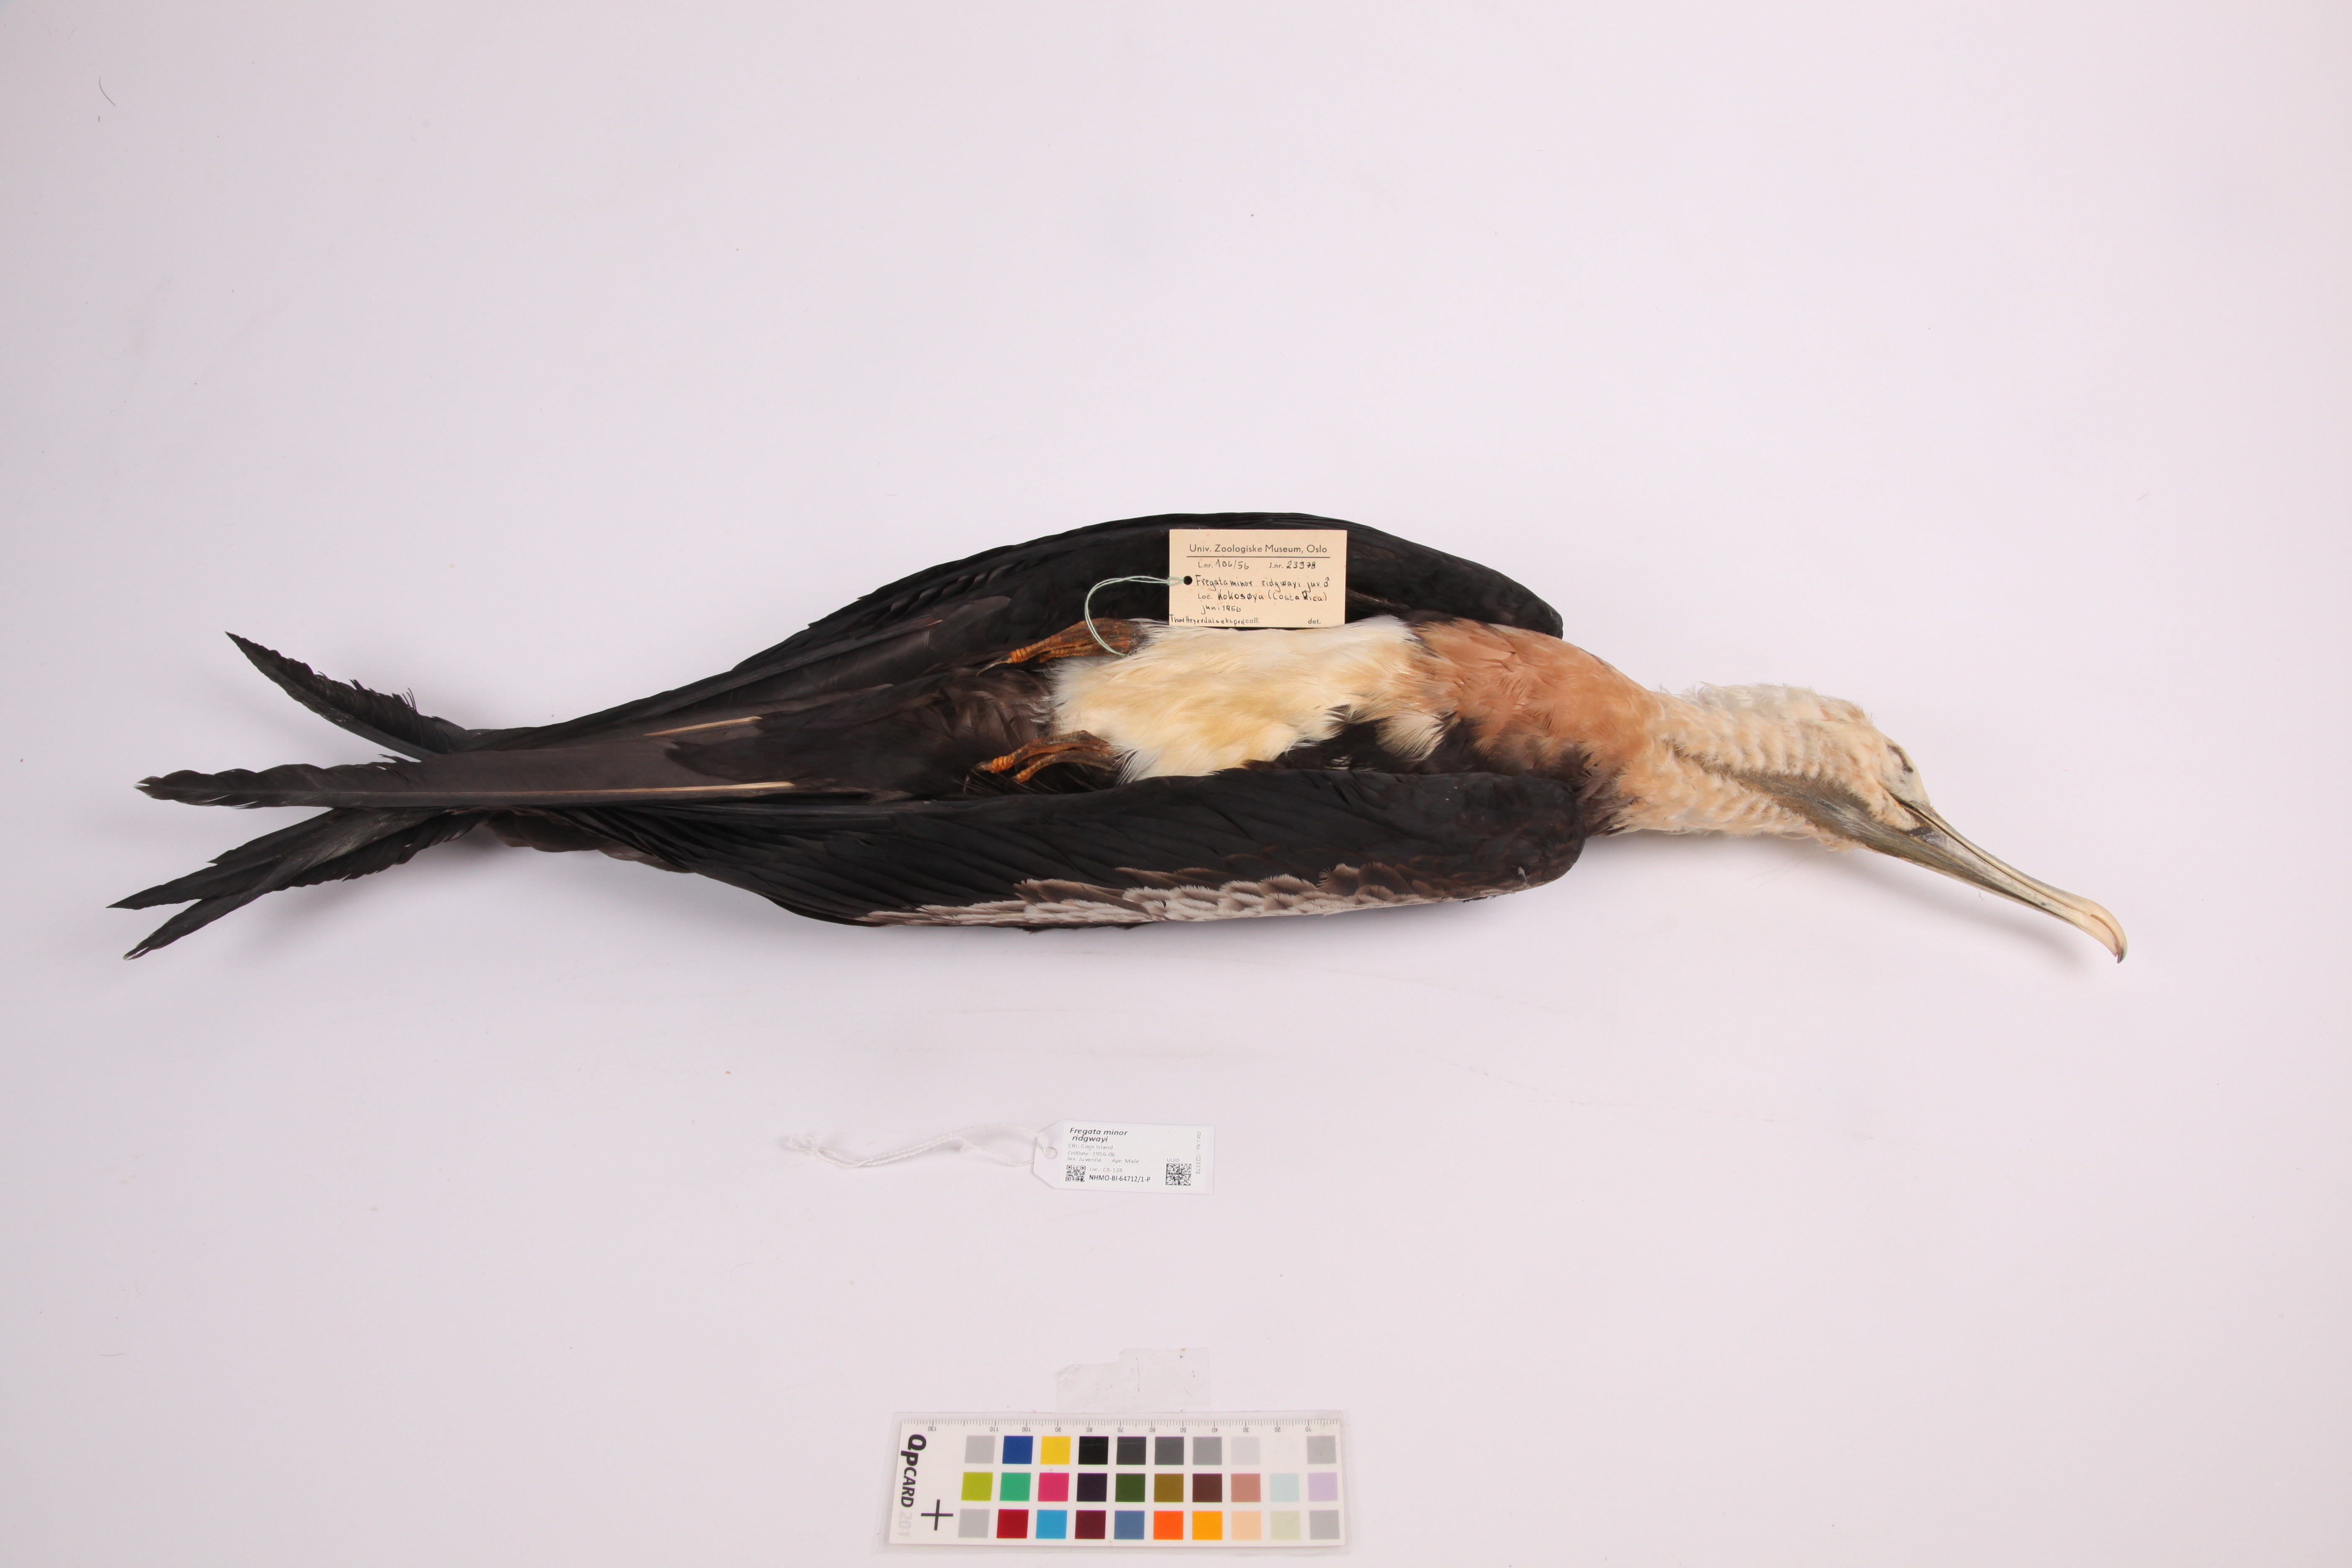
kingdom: Animalia
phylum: Chordata
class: Aves
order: Suliformes
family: Fregatidae
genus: Fregata
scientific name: Fregata minor
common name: Great frigatebird
